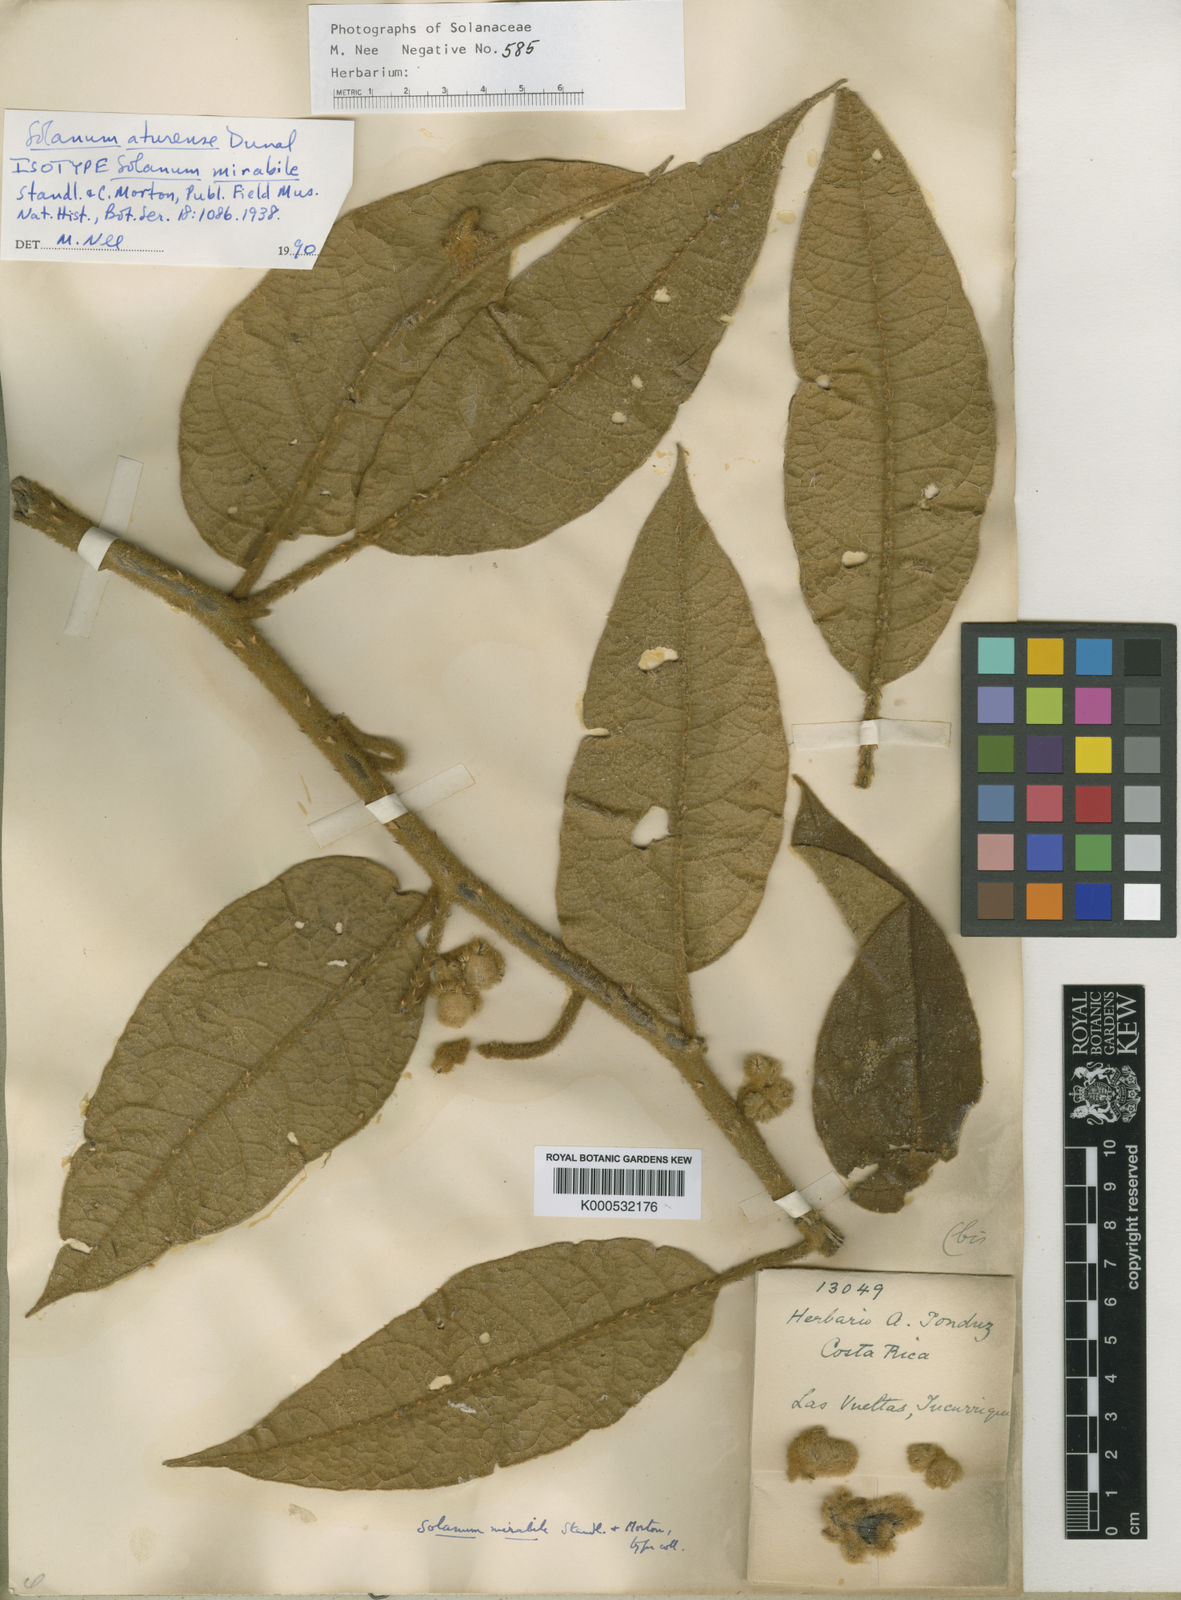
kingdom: Plantae
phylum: Tracheophyta
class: Magnoliopsida
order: Solanales
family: Solanaceae
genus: Solanum
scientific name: Solanum aturense
